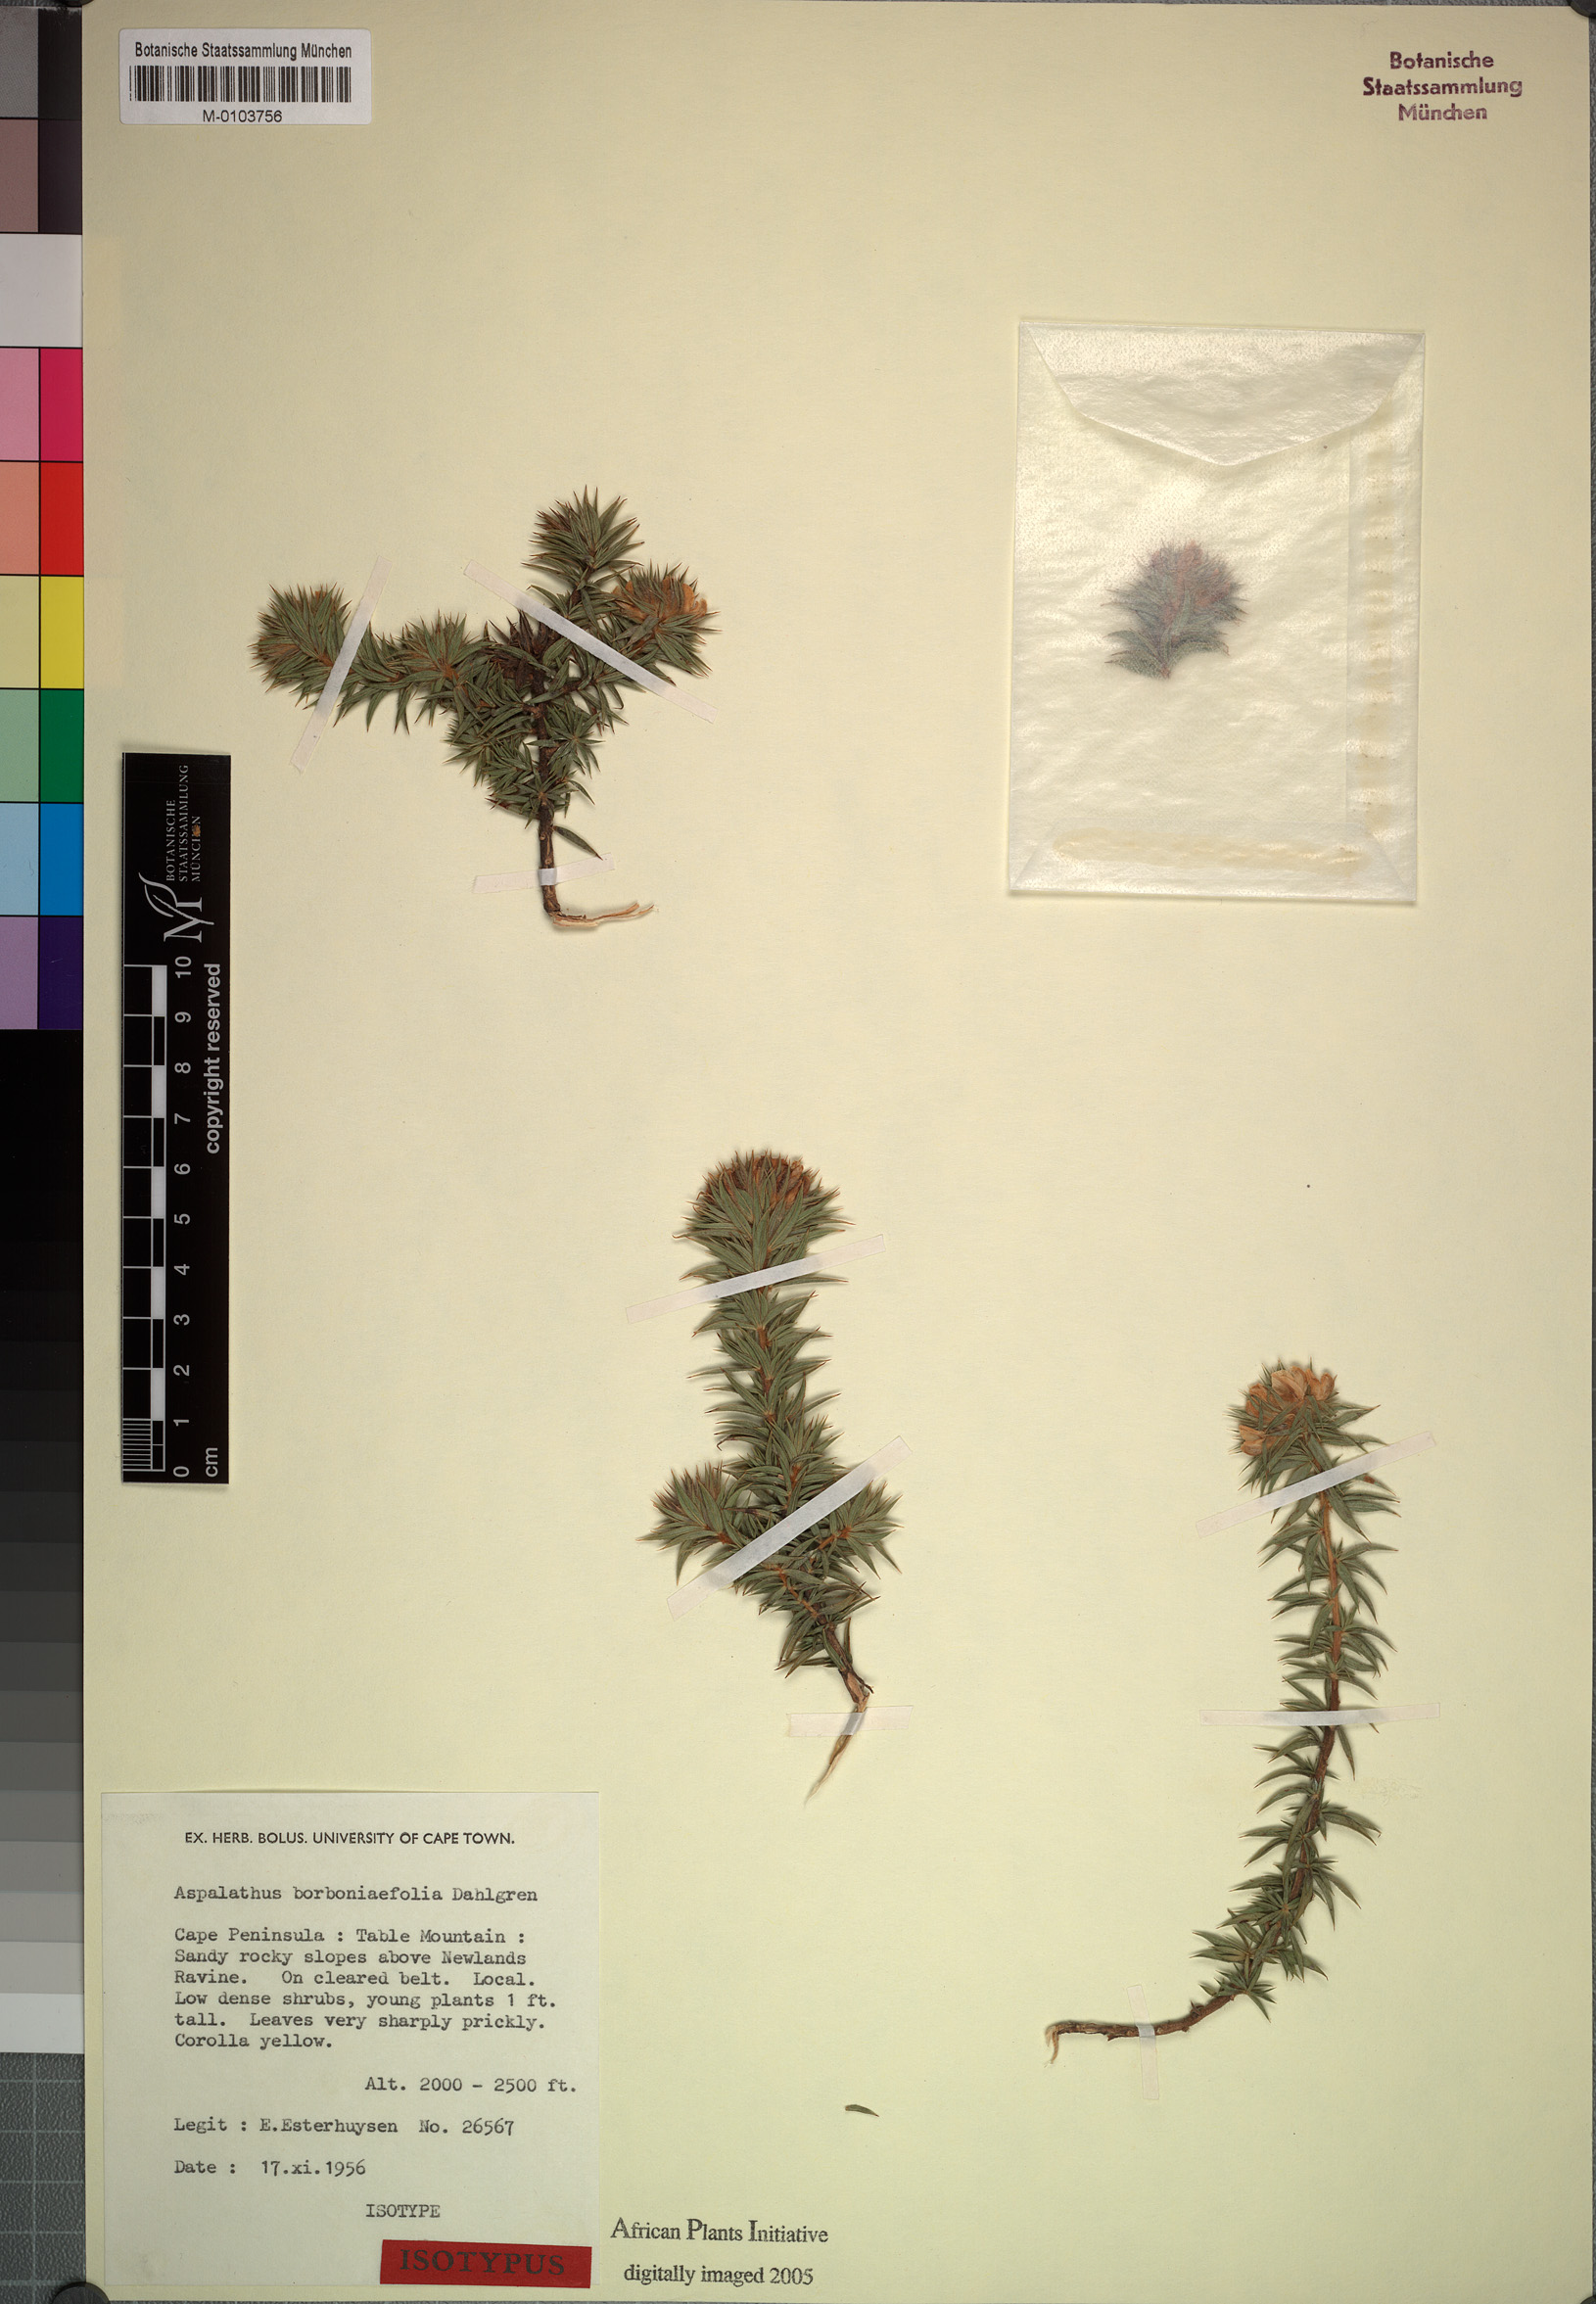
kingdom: Plantae
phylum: Tracheophyta
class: Magnoliopsida
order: Fabales
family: Fabaceae
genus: Aspalathus
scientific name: Aspalathus borboniifolia
